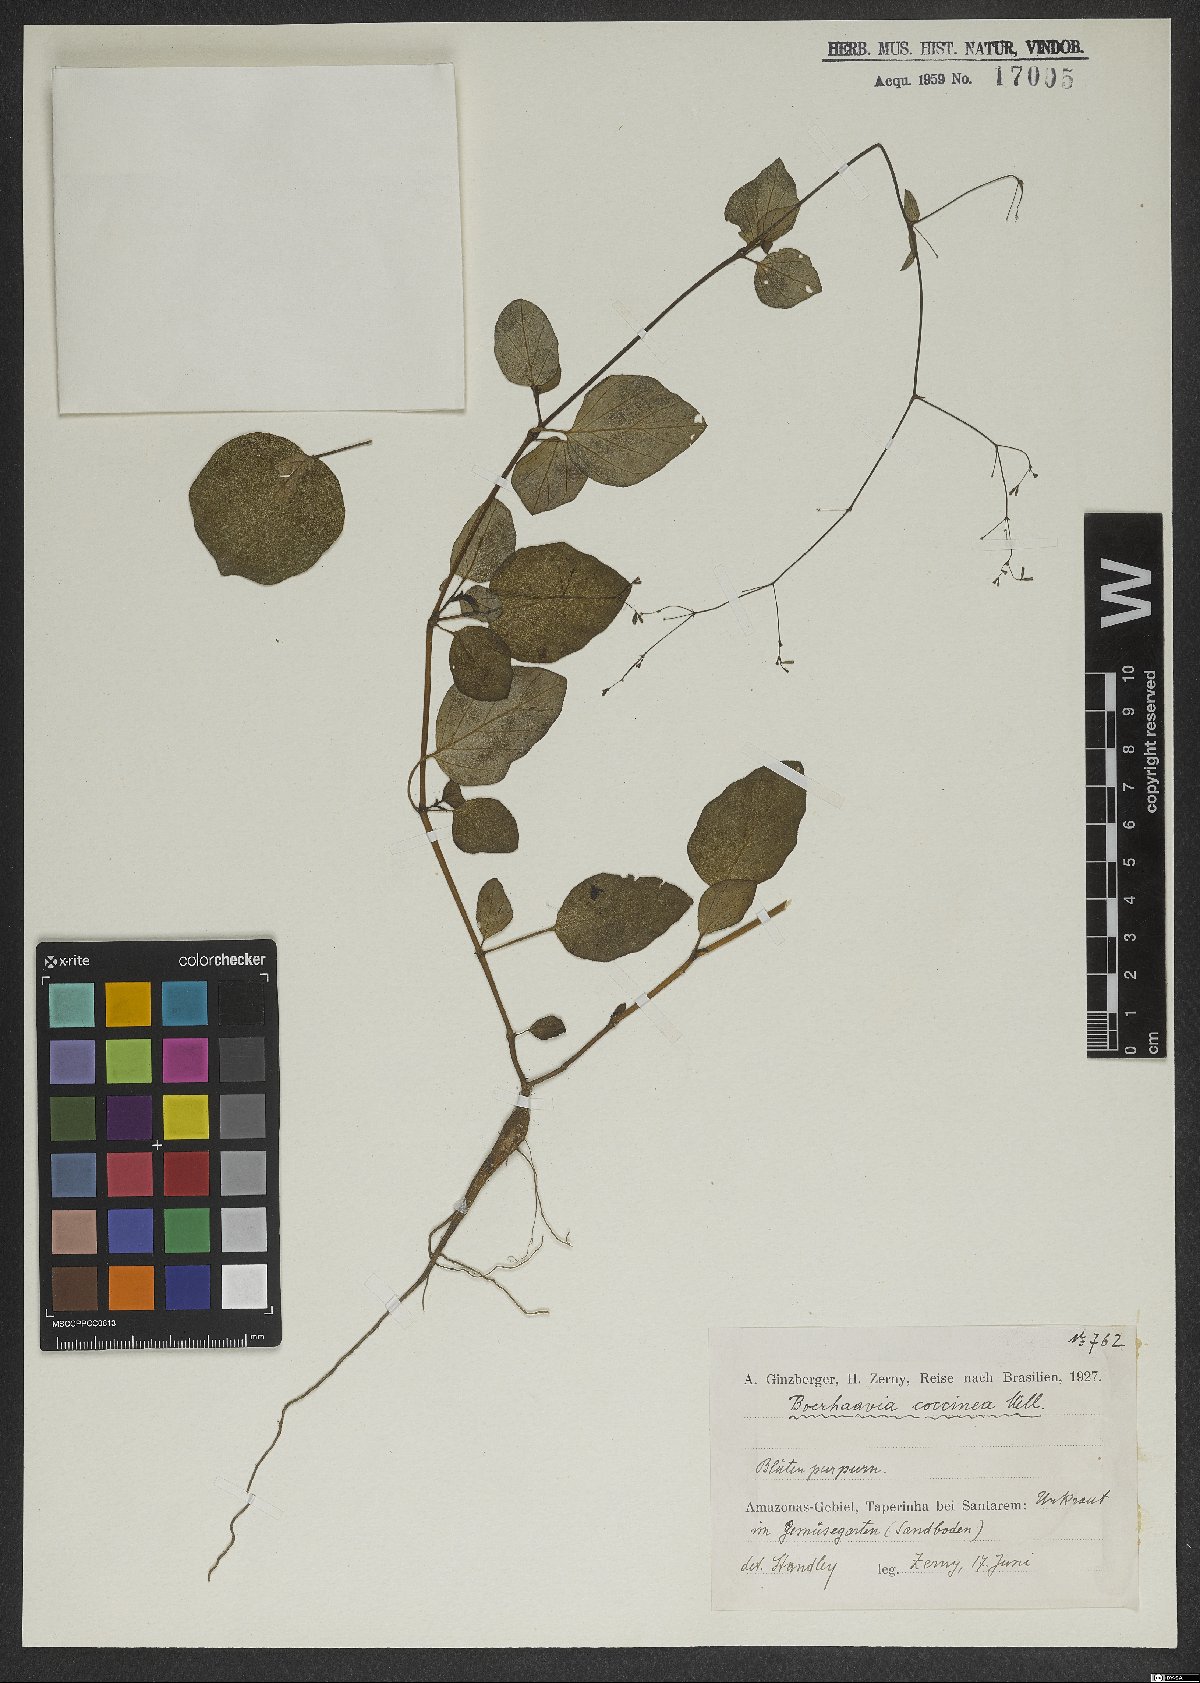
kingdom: Plantae
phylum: Tracheophyta
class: Magnoliopsida
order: Caryophyllales
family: Nyctaginaceae
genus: Boerhavia
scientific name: Boerhavia coccinea
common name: Scarlet spiderling
